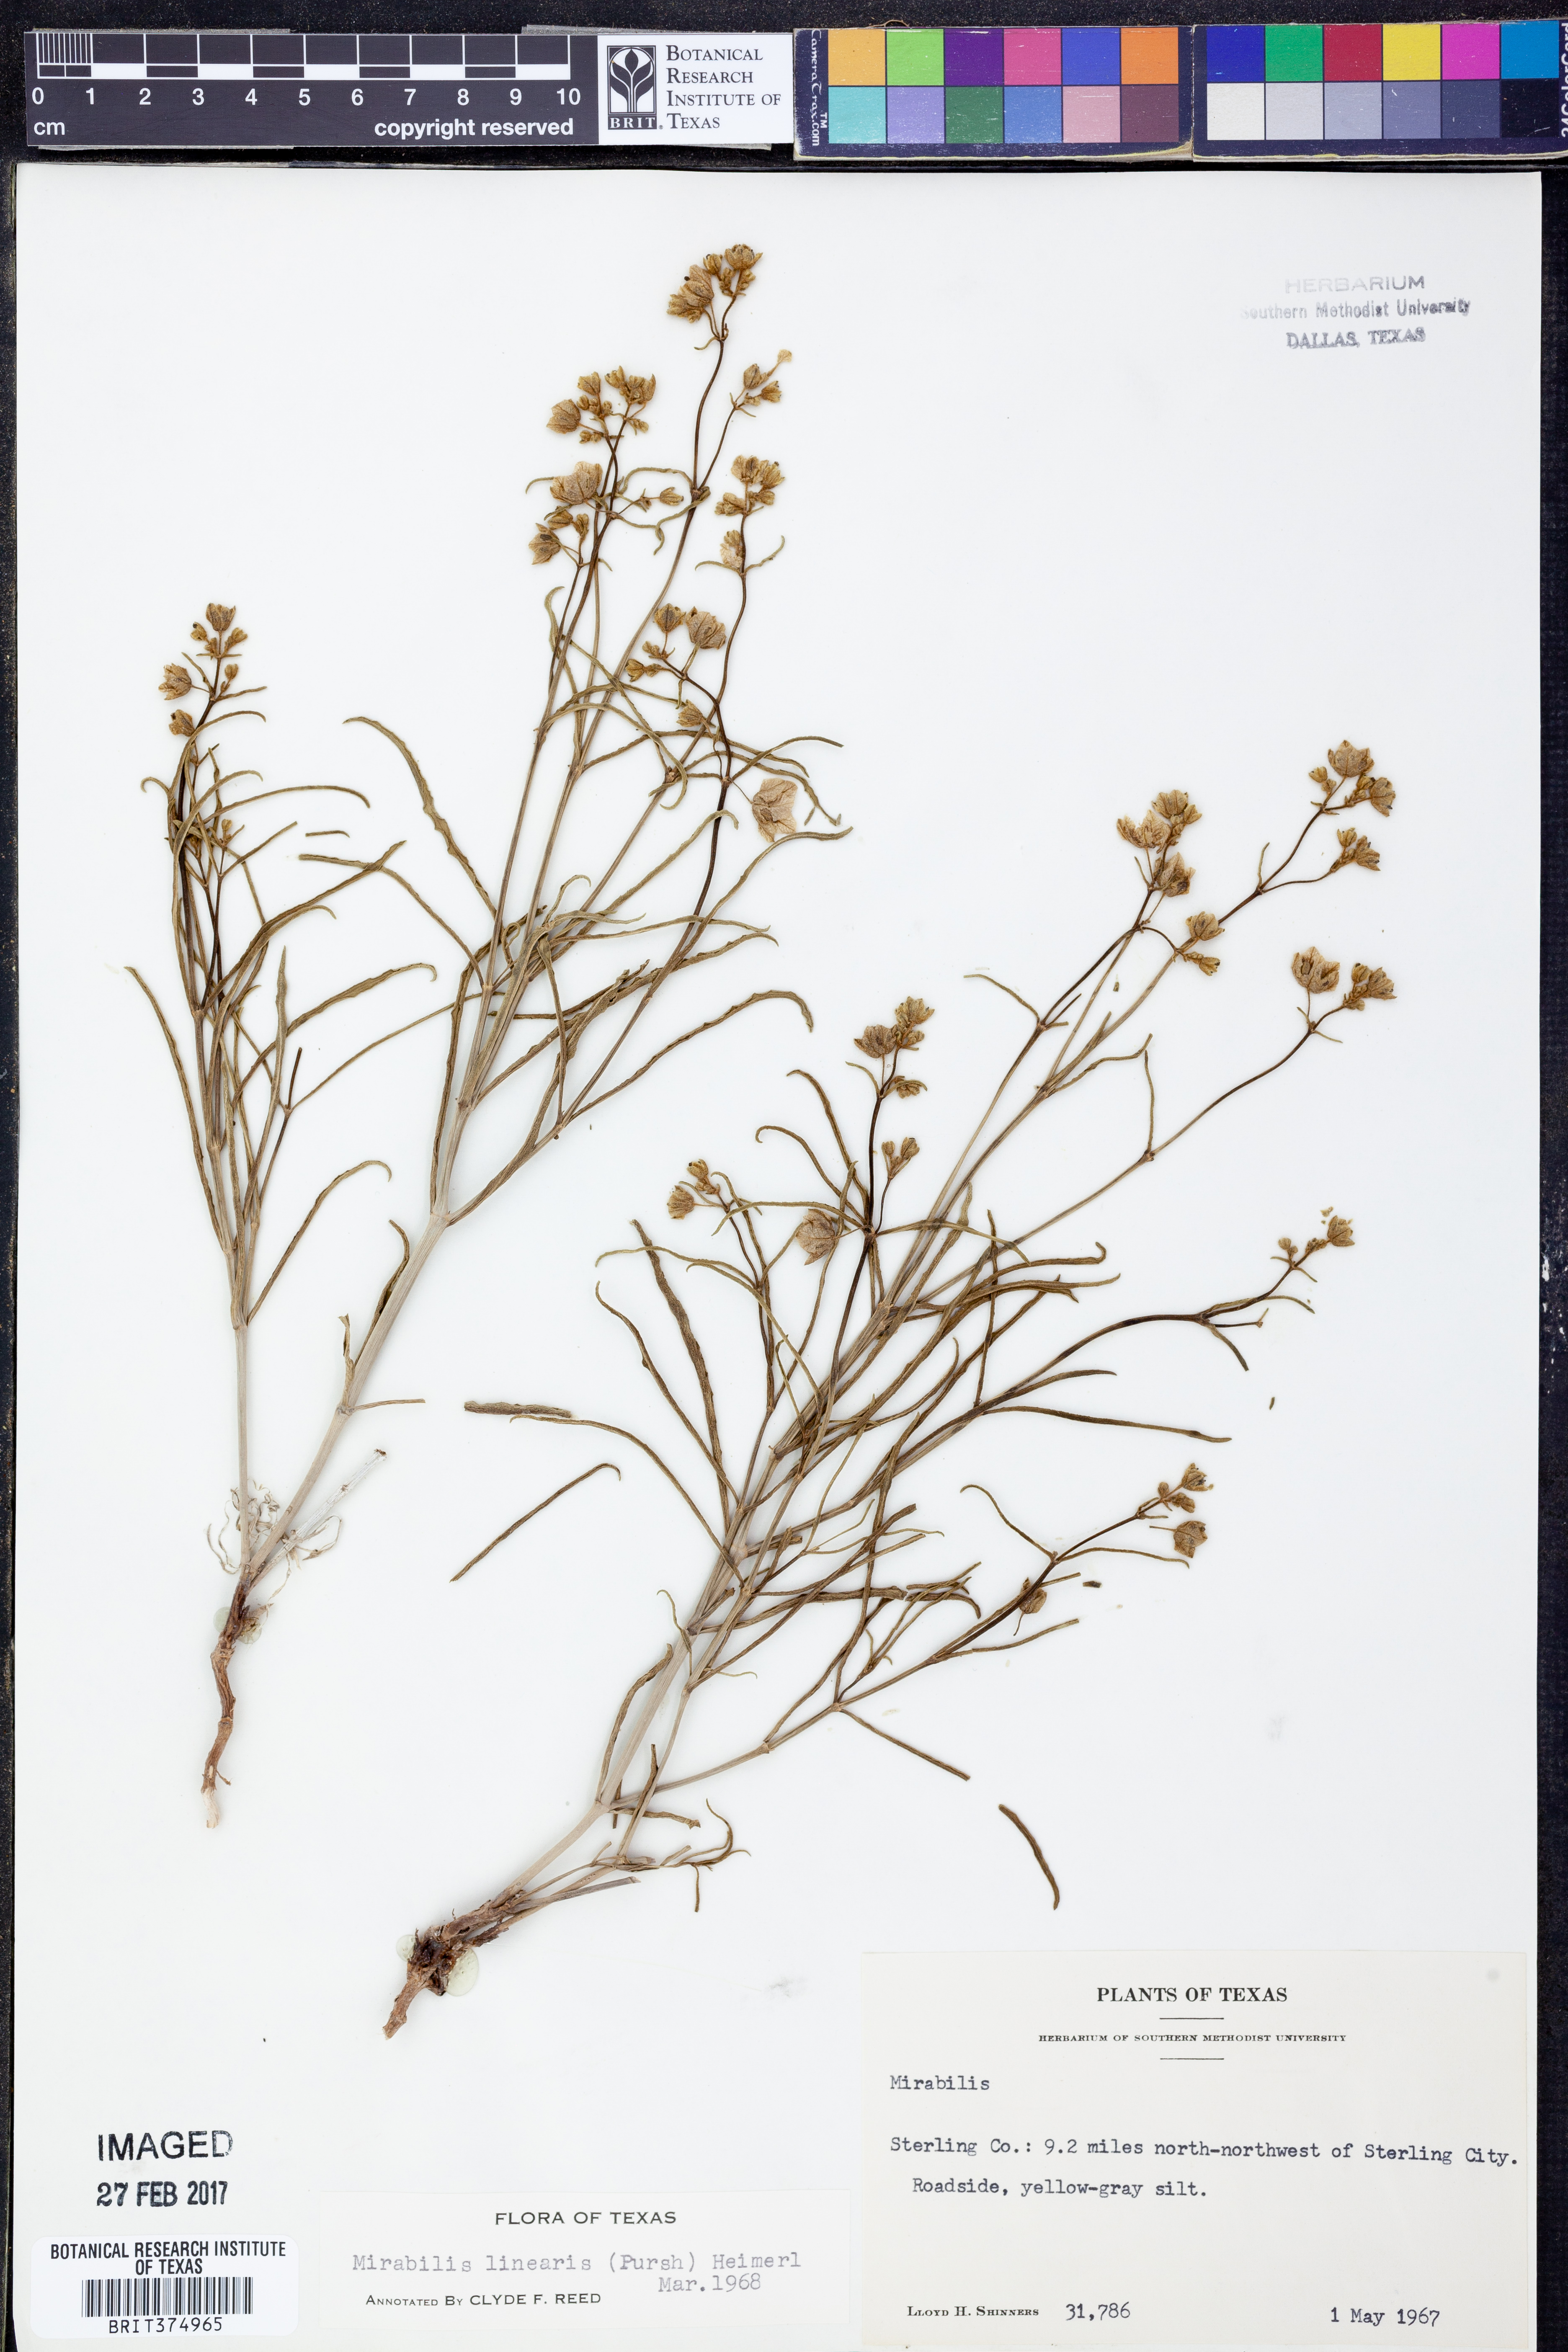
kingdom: Plantae
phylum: Tracheophyta
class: Magnoliopsida
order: Caryophyllales
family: Nyctaginaceae
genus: Mirabilis
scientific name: Mirabilis linearis
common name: Linear-leaved four-o'clock
